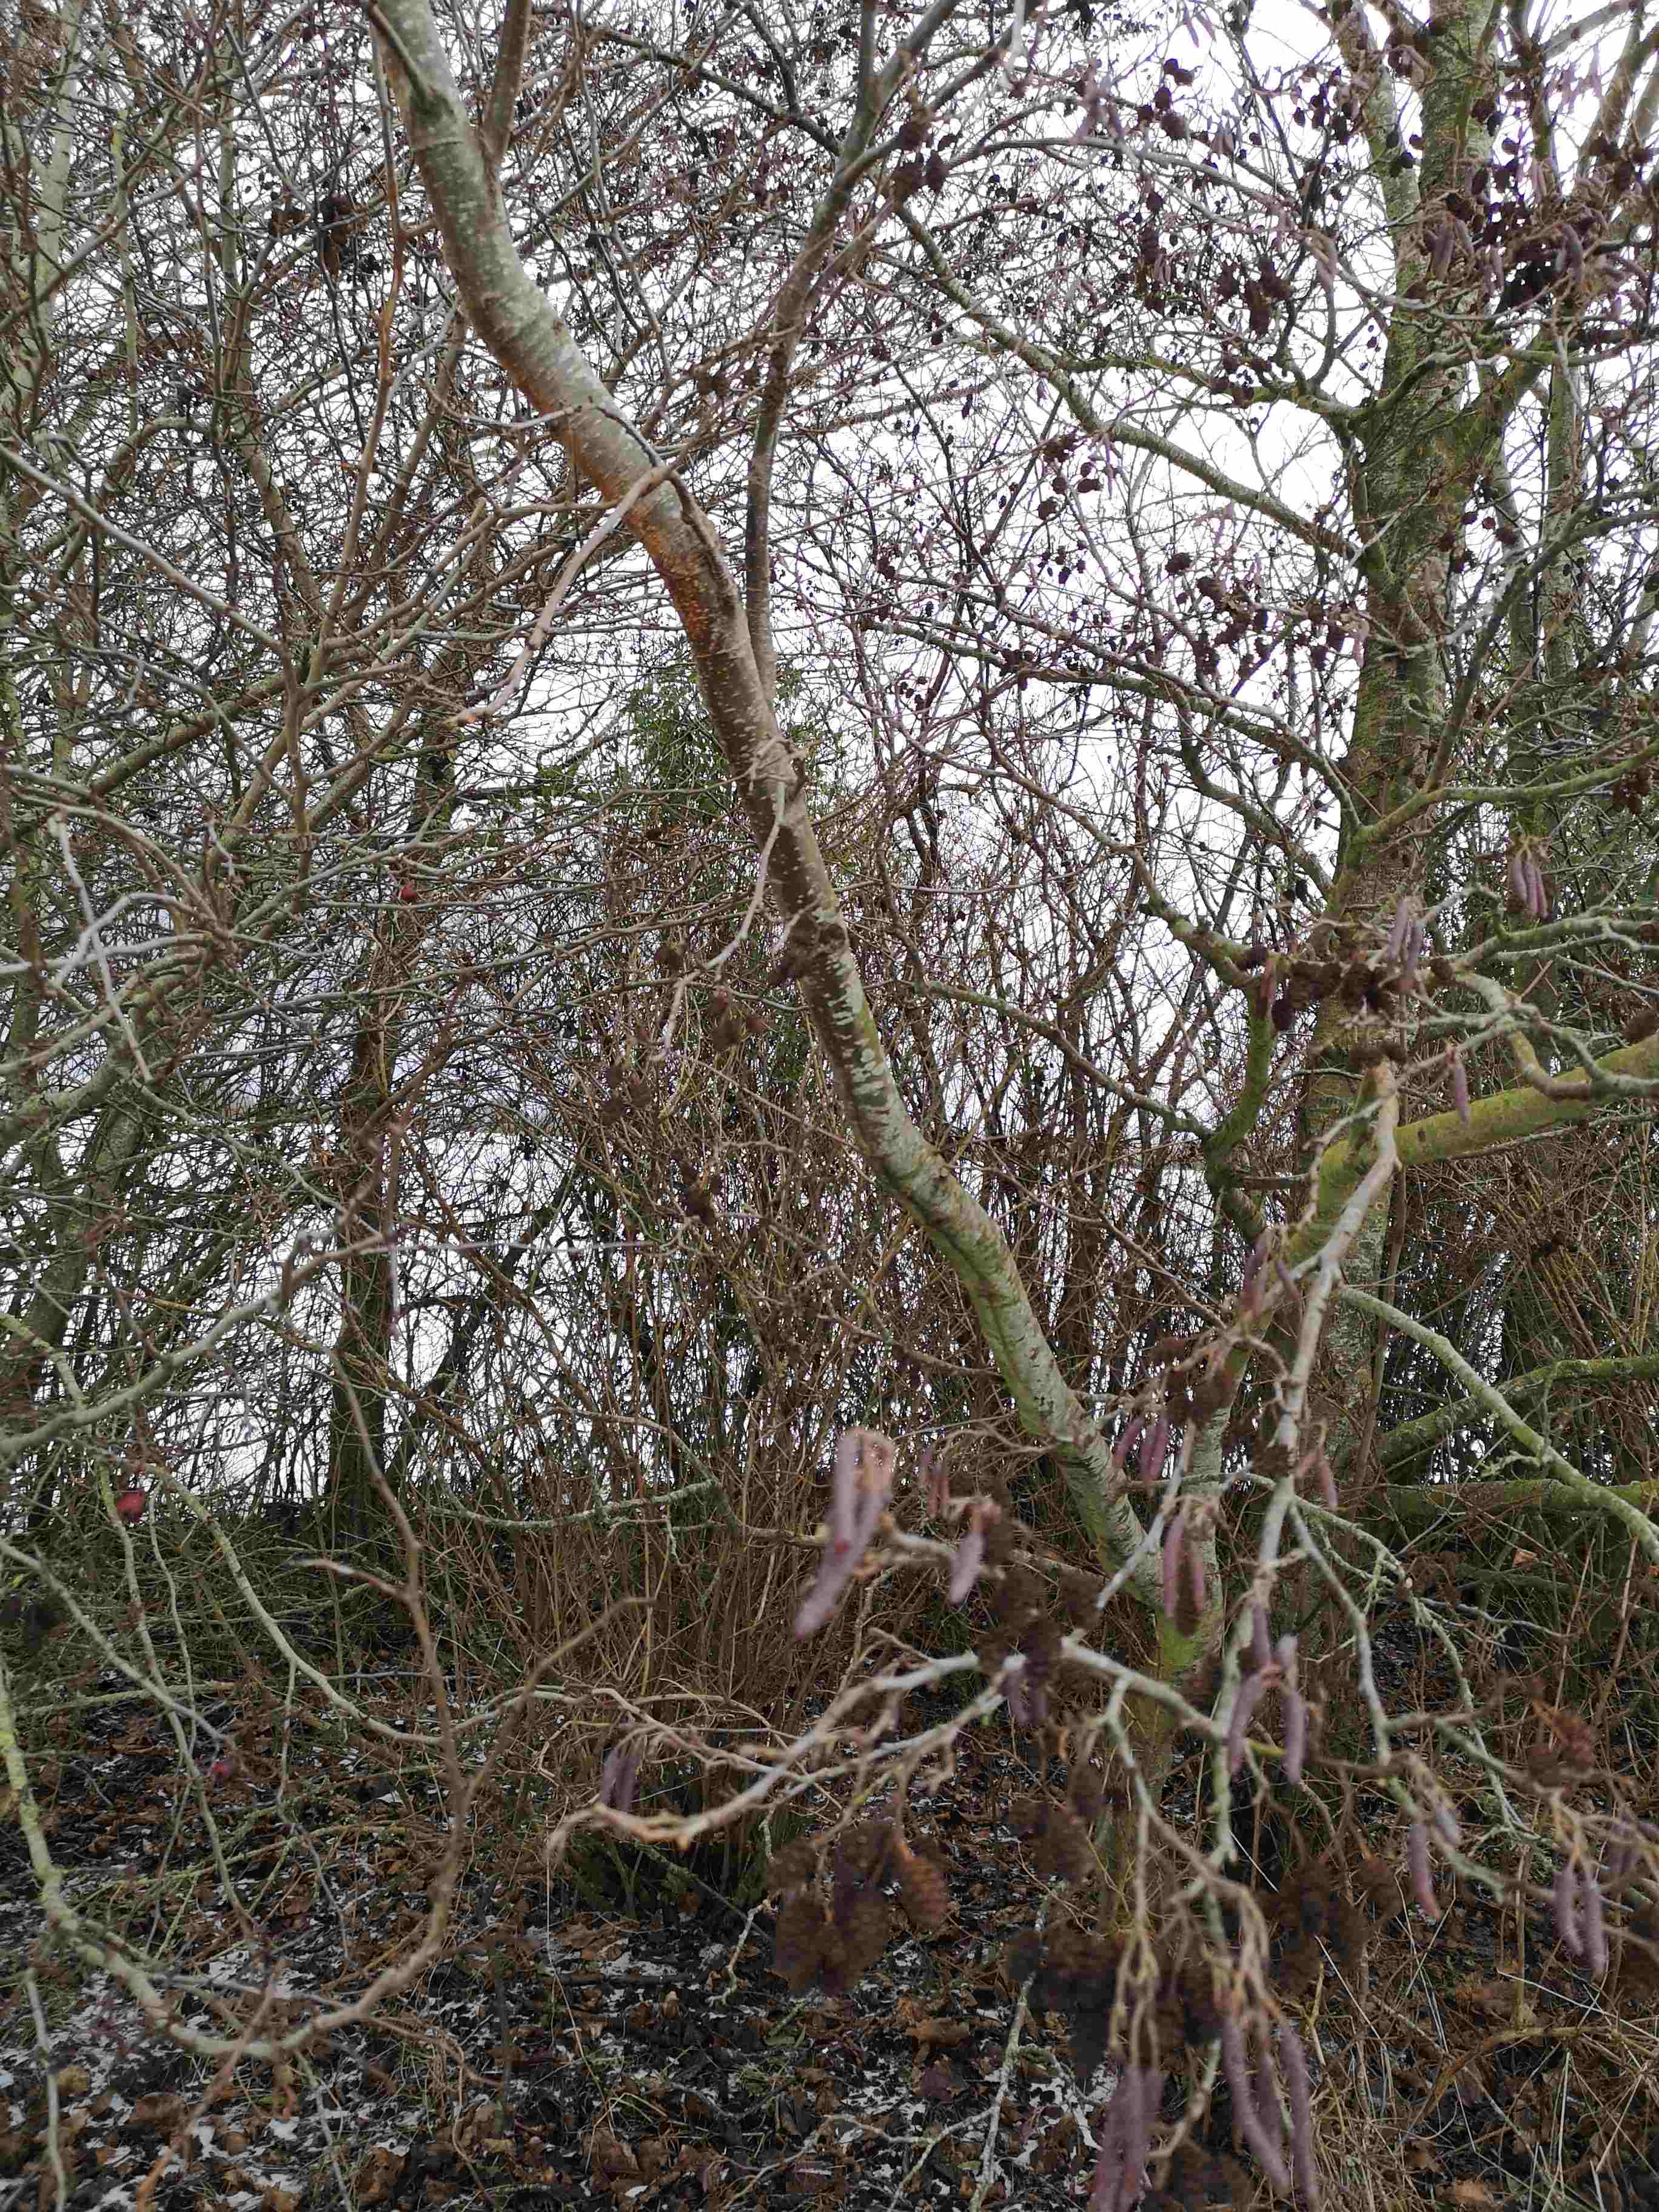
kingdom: Fungi
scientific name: Fungi
